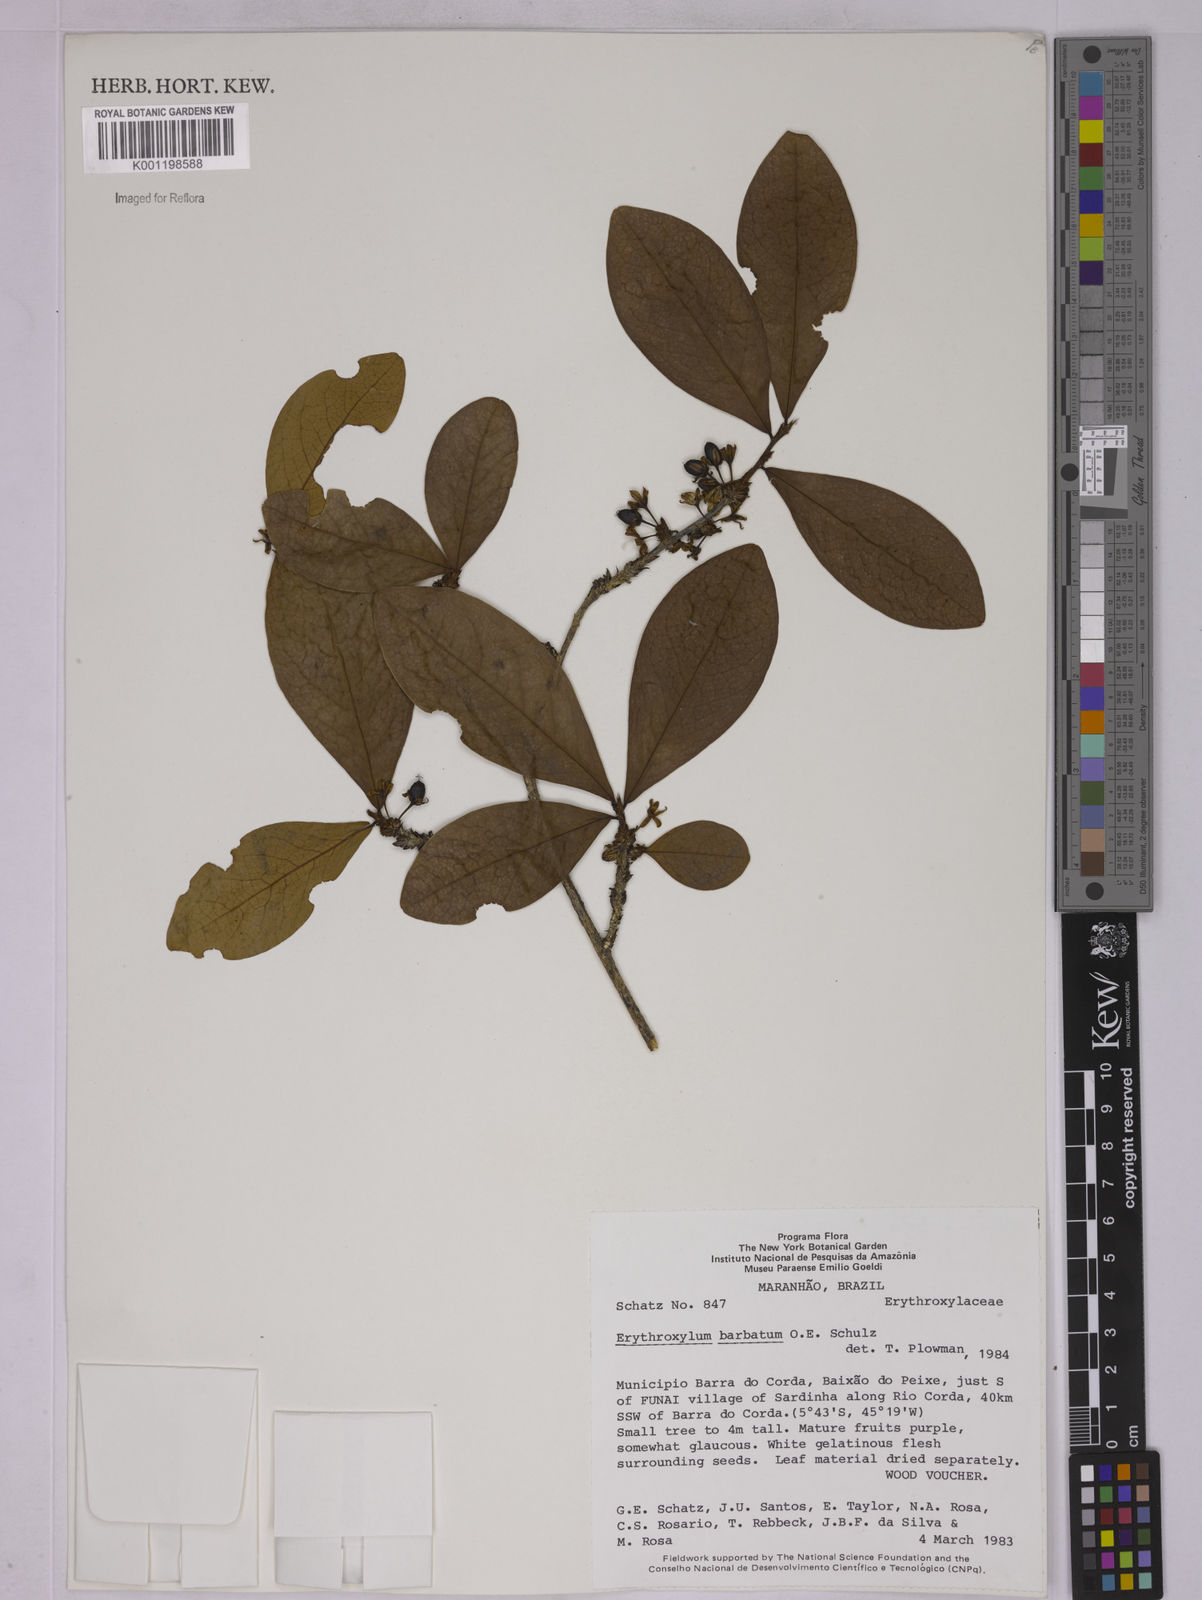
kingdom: Plantae
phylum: Tracheophyta
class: Magnoliopsida
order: Malpighiales
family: Erythroxylaceae
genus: Erythroxylum
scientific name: Erythroxylum barbatum
